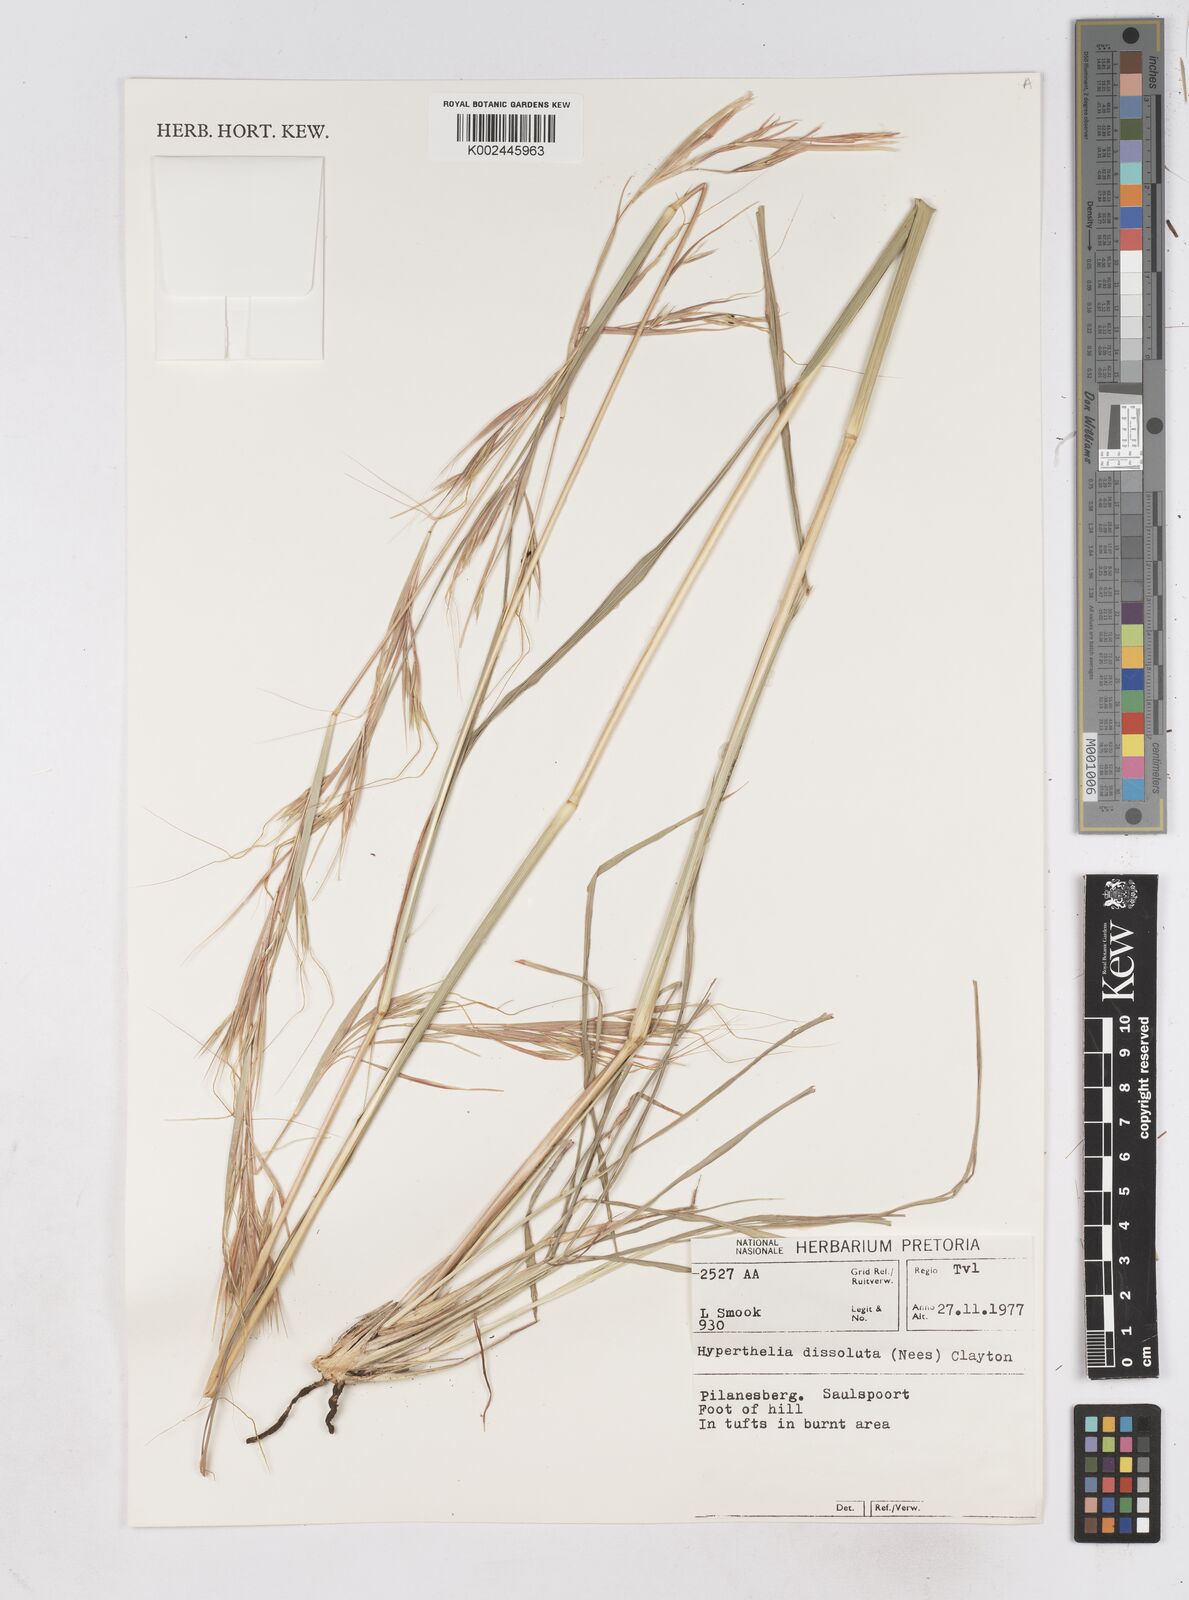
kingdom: Plantae
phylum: Tracheophyta
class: Liliopsida
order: Poales
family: Poaceae
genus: Hyperthelia
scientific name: Hyperthelia dissoluta
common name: Yellow thatching grass
